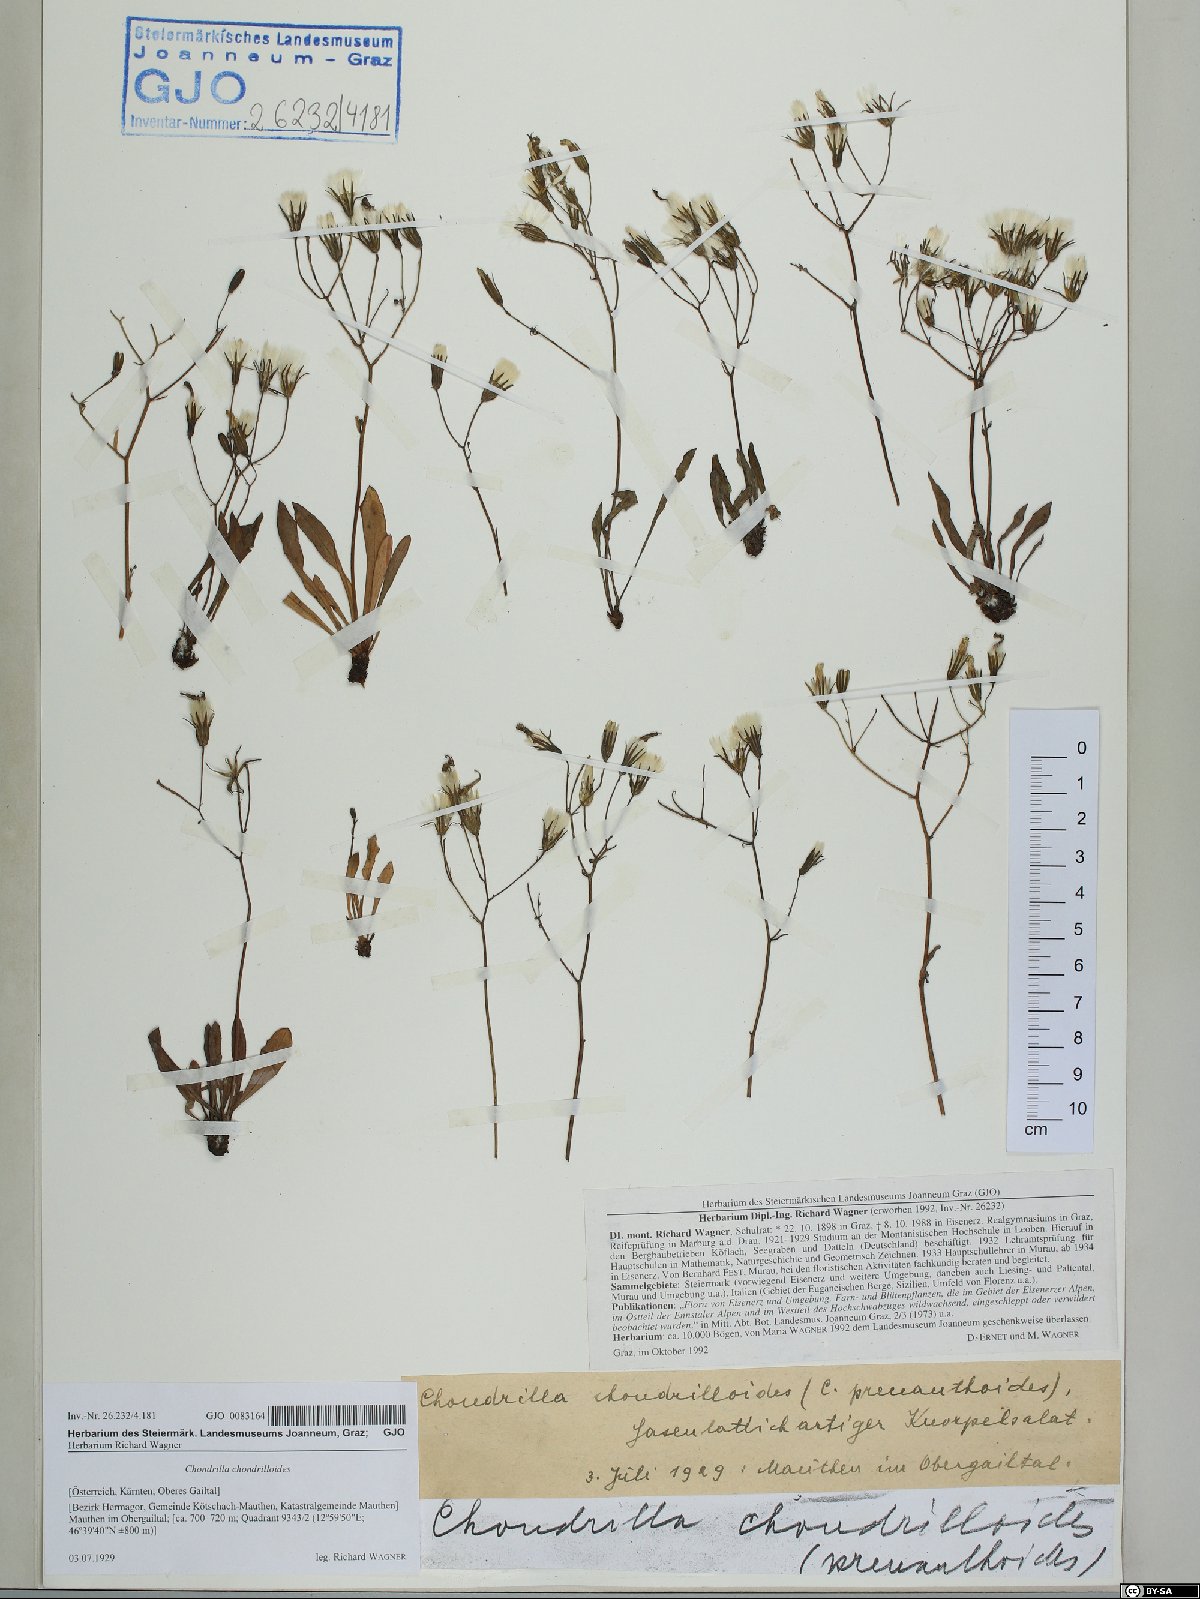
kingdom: Plantae
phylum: Tracheophyta
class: Magnoliopsida
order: Asterales
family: Asteraceae
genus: Chondrilla
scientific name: Chondrilla chondrilloides
